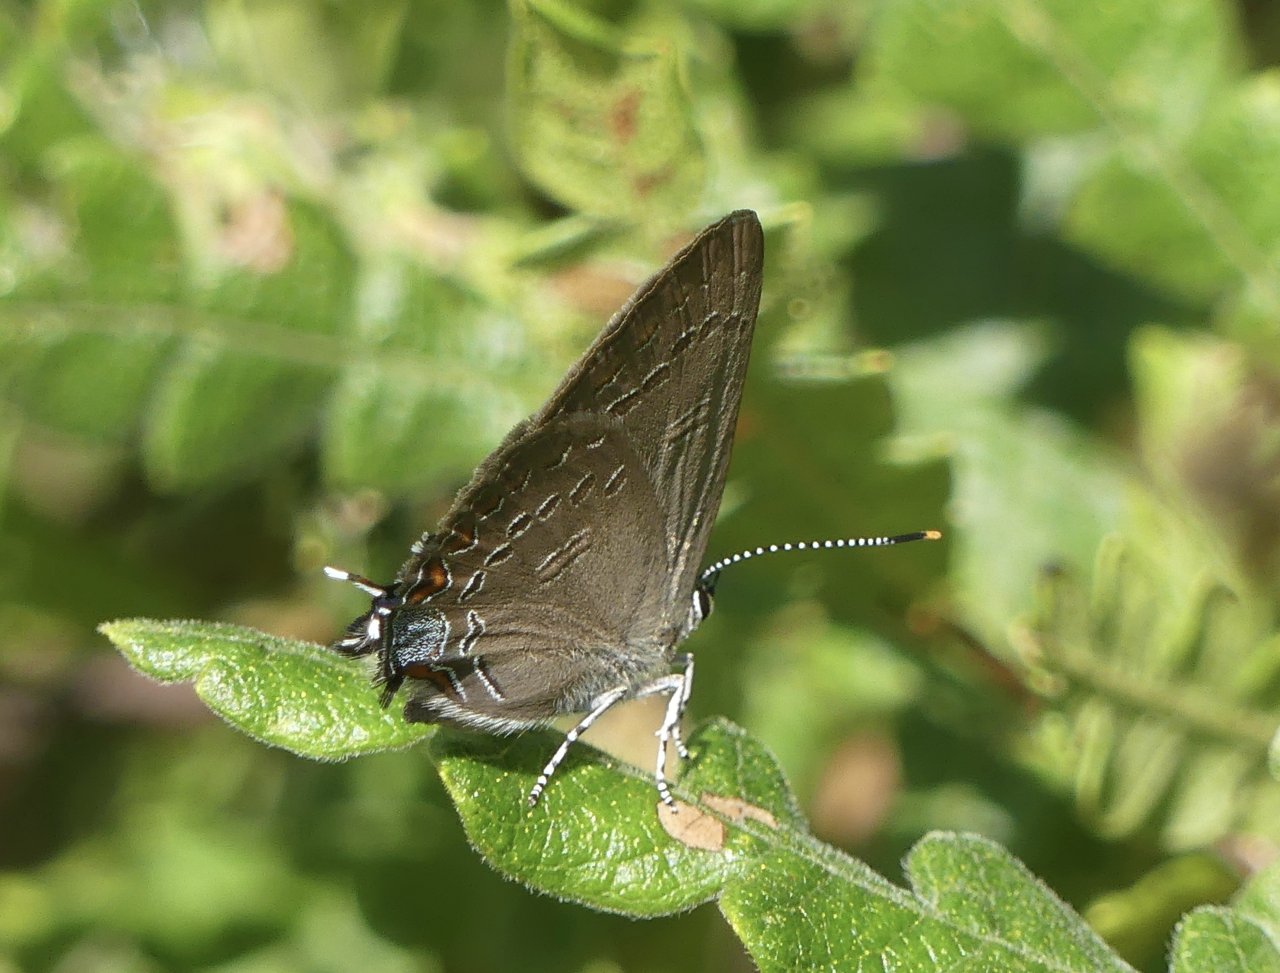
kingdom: Animalia
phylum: Arthropoda
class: Insecta
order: Lepidoptera
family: Lycaenidae
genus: Satyrium
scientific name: Satyrium edwardsii
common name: Edwards' Hairstreak
